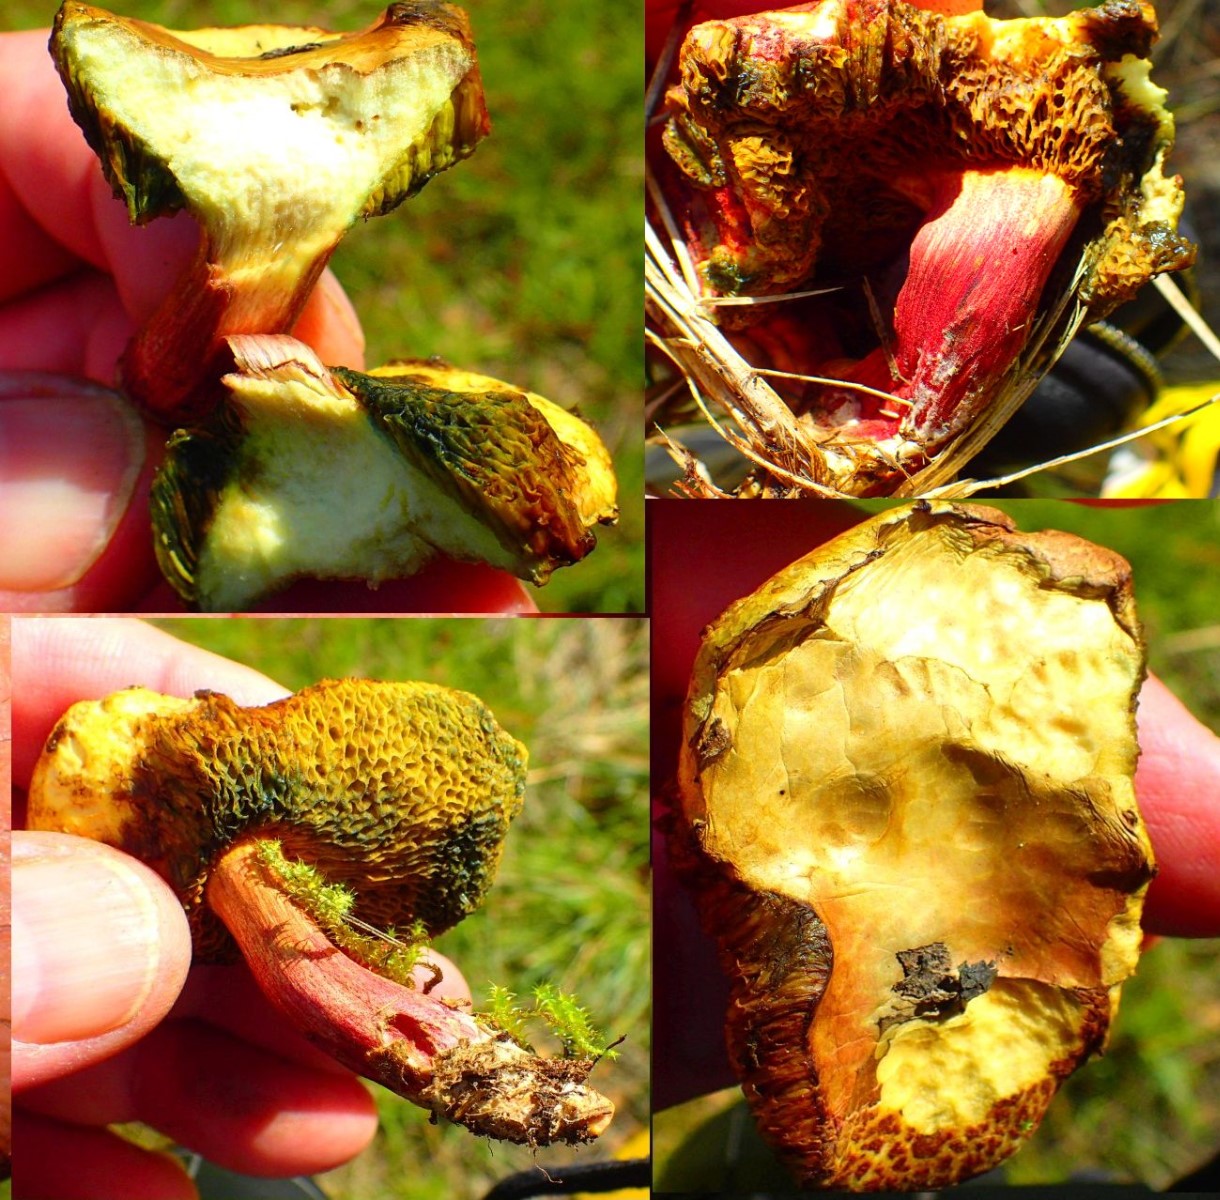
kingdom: Fungi
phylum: Basidiomycota
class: Agaricomycetes
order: Boletales
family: Boletaceae
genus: Xerocomellus
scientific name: Xerocomellus
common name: dværgrørhat
